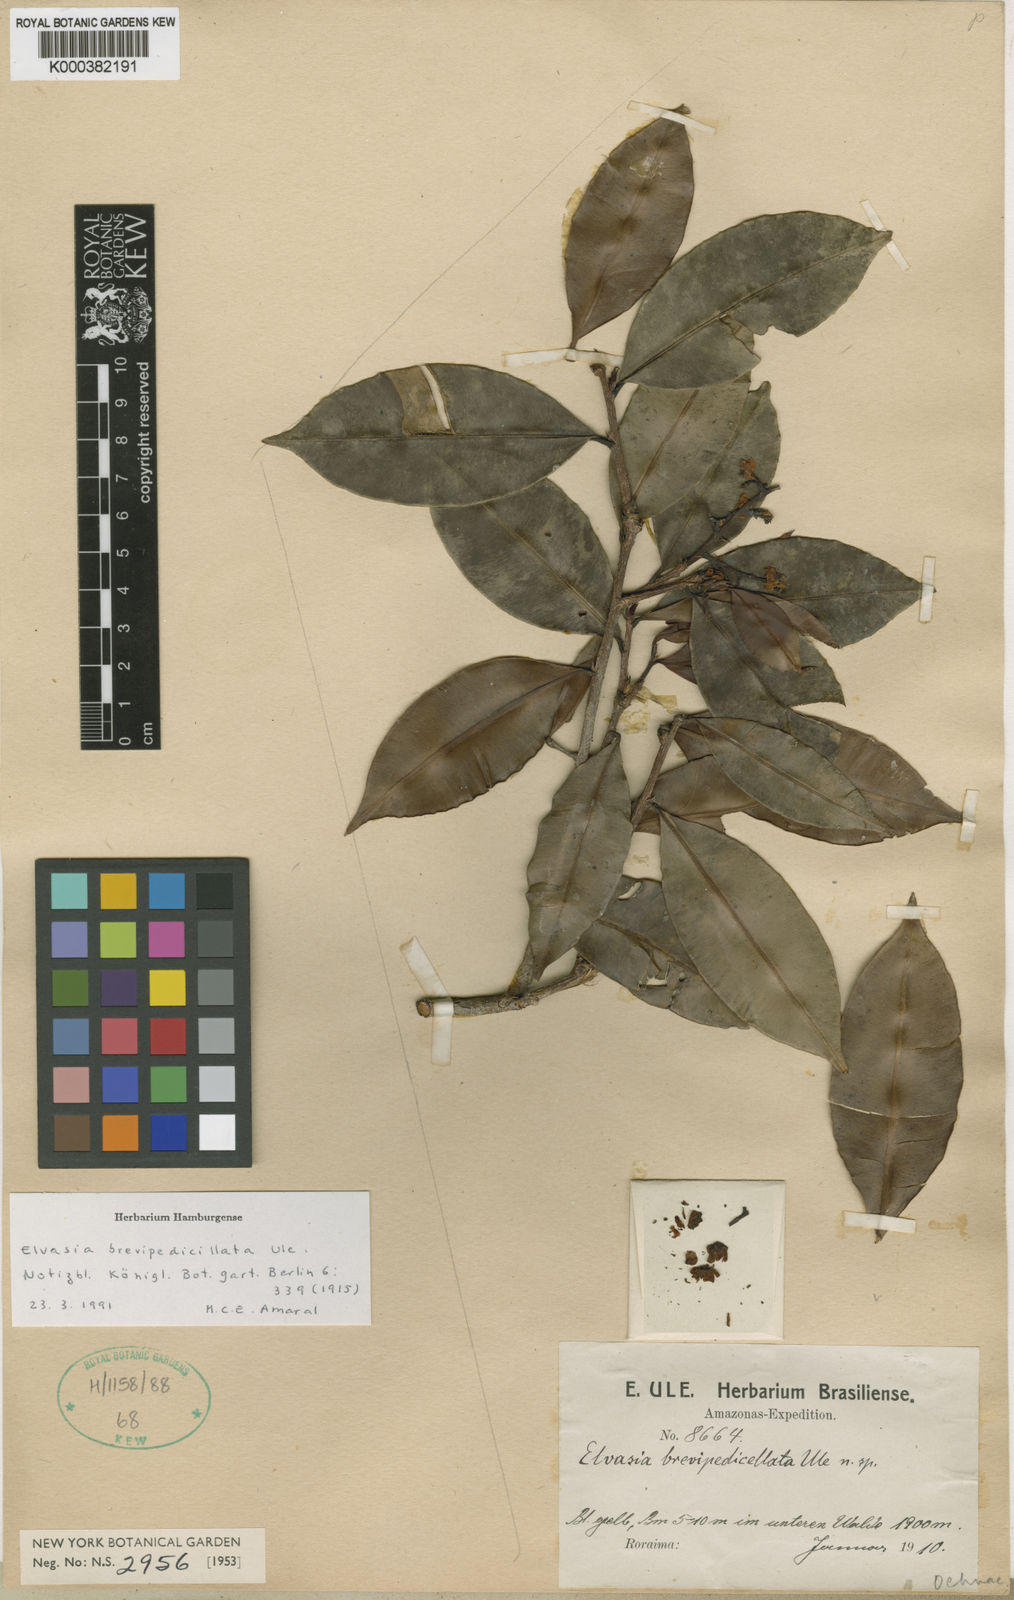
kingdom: Plantae
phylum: Tracheophyta
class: Magnoliopsida
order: Malpighiales
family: Ochnaceae
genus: Elvasia
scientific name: Elvasia brevipedicellata
